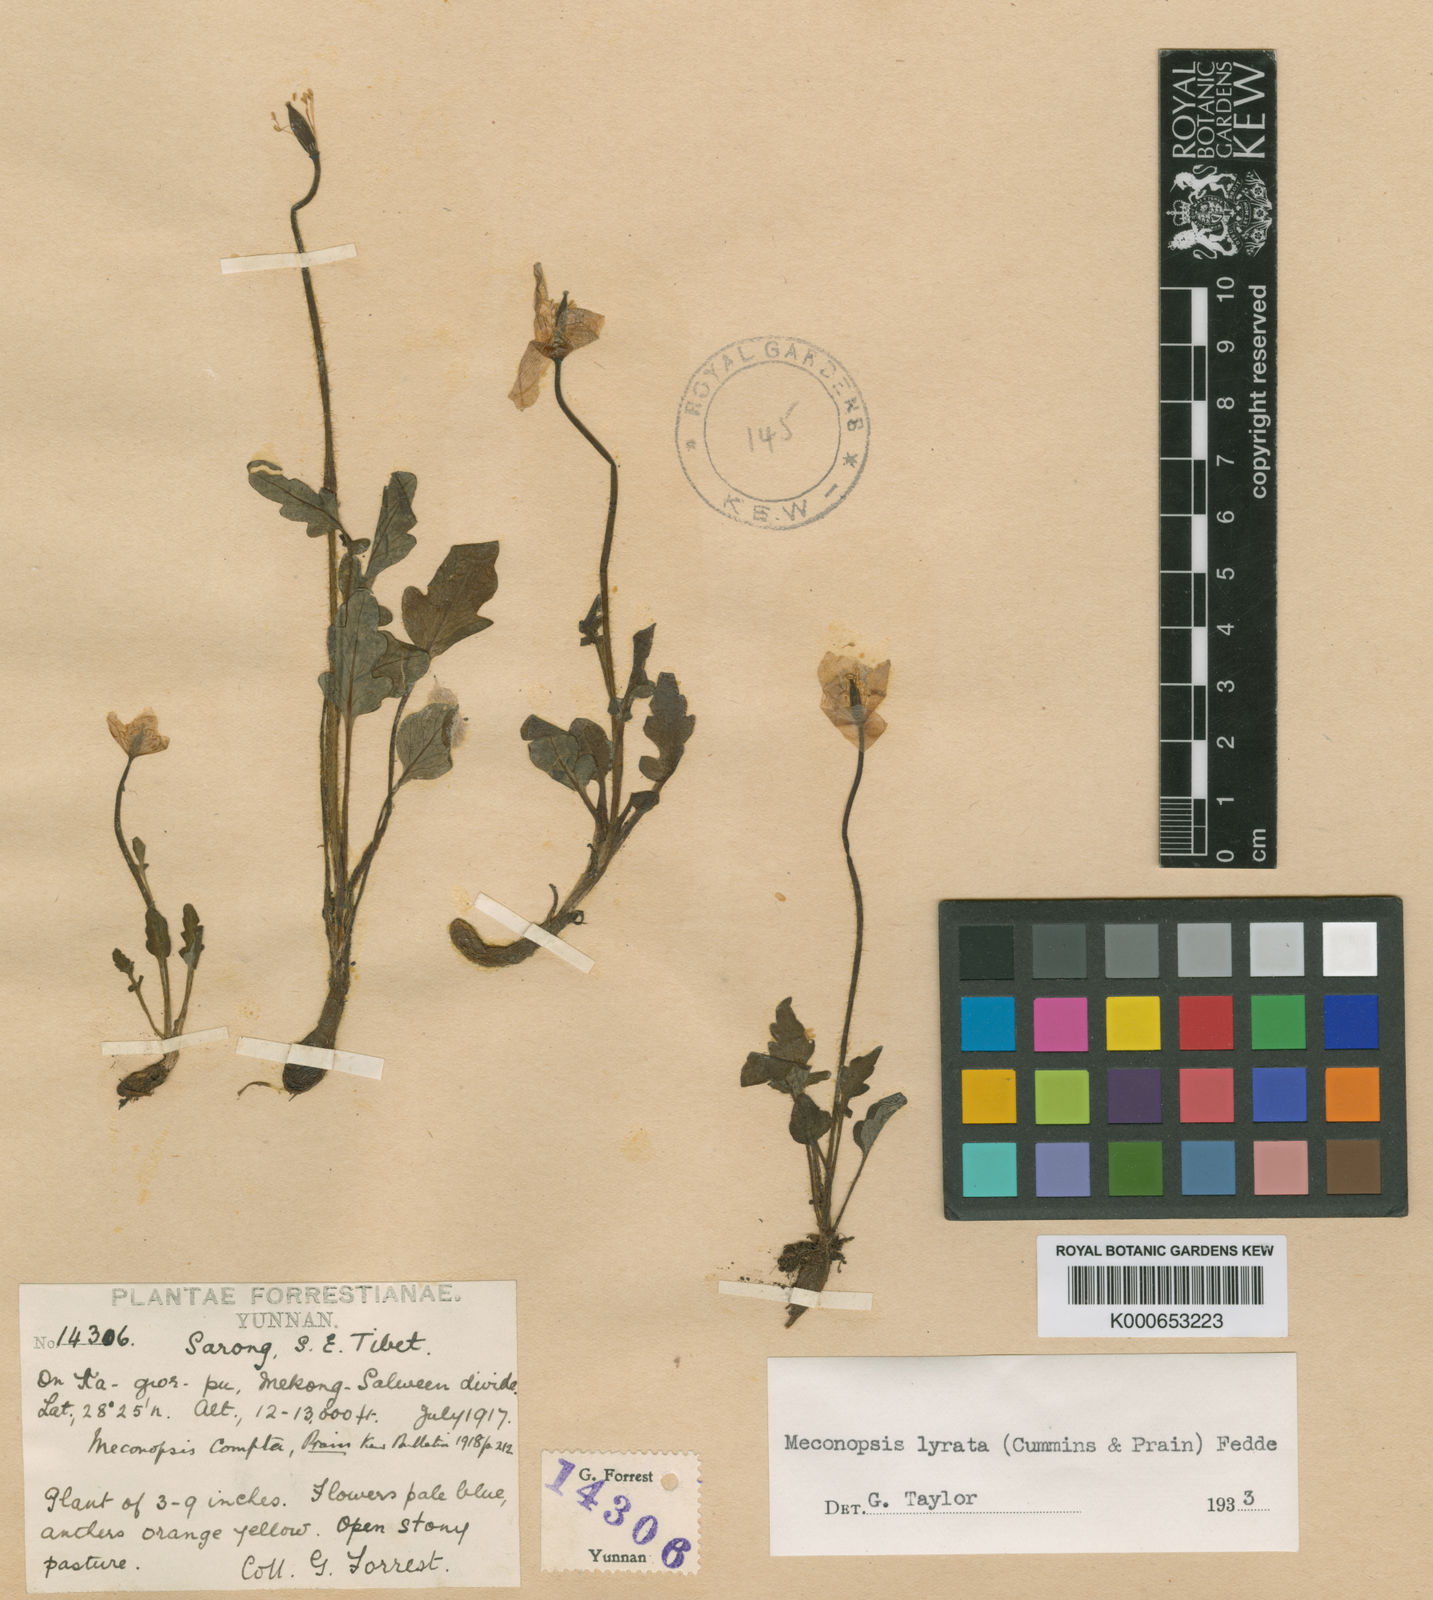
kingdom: Plantae
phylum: Tracheophyta
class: Magnoliopsida
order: Ranunculales
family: Papaveraceae
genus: Meconopsis
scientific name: Meconopsis lyrata
